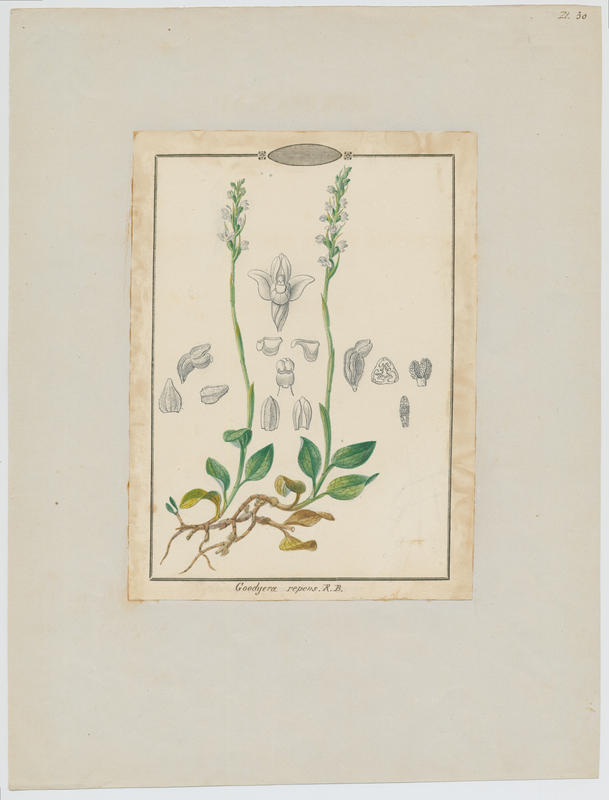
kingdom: Plantae
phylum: Tracheophyta
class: Liliopsida
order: Asparagales
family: Orchidaceae
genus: Goodyera
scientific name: Goodyera repens
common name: Creeping lady's-tresses
